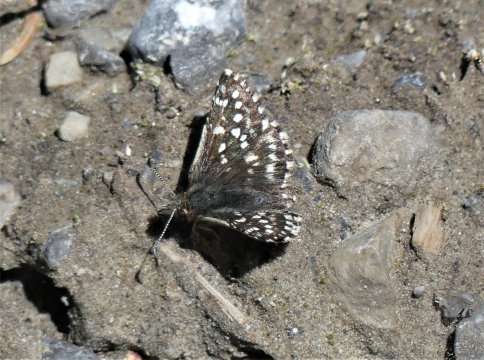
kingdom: Animalia
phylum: Arthropoda
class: Insecta
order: Lepidoptera
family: Hesperiidae
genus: Pyrgus
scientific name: Pyrgus ruralis
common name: Two-banded Checkered-Skipper
